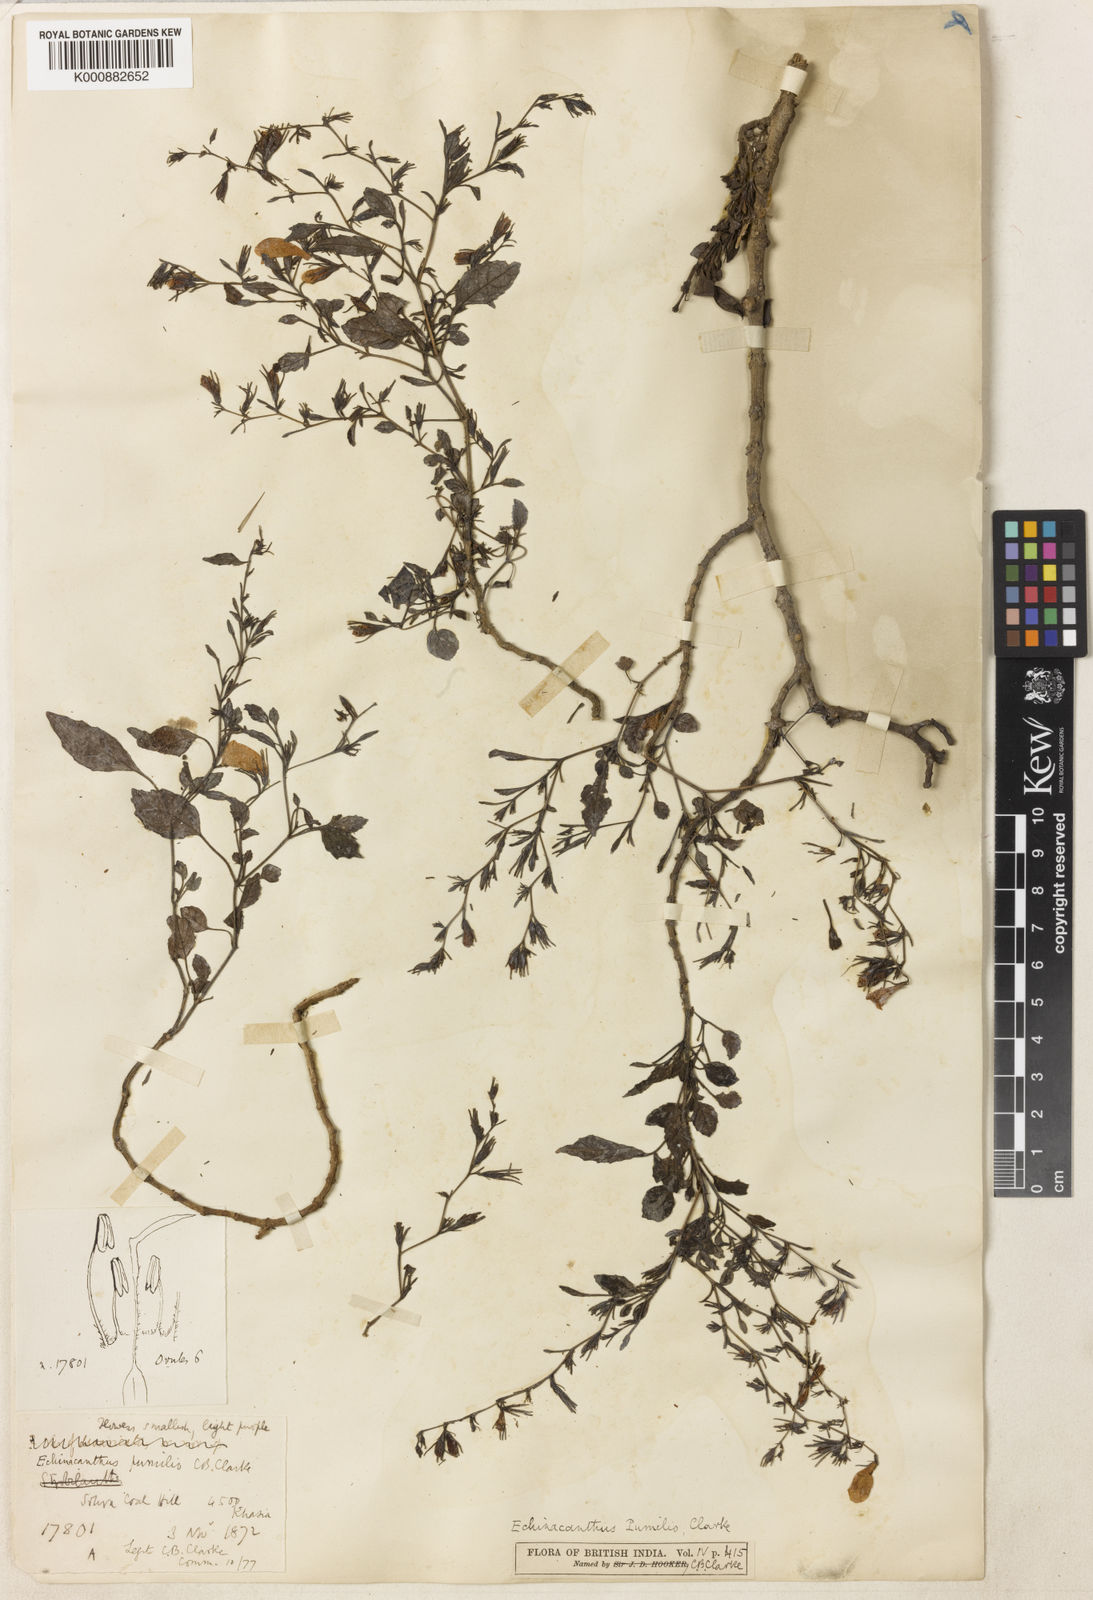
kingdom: Plantae
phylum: Tracheophyta
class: Magnoliopsida
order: Lamiales
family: Acanthaceae
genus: Strobilanthes
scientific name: Strobilanthes violifolia
